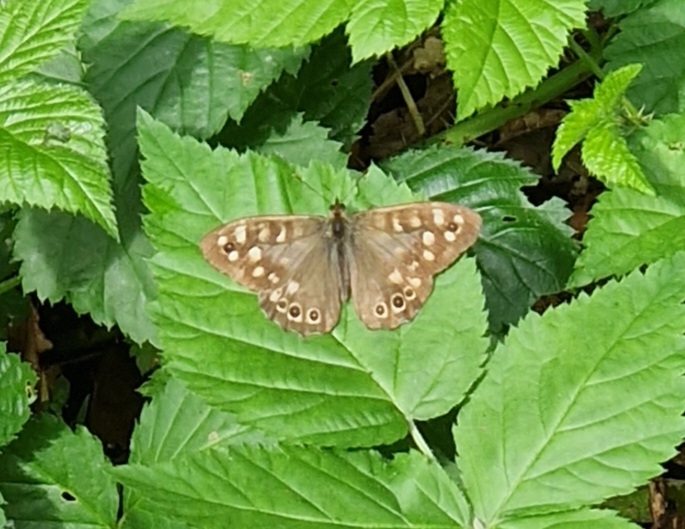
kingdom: Animalia
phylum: Arthropoda
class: Insecta
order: Lepidoptera
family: Nymphalidae
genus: Pararge
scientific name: Pararge aegeria
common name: Skovrandøje
